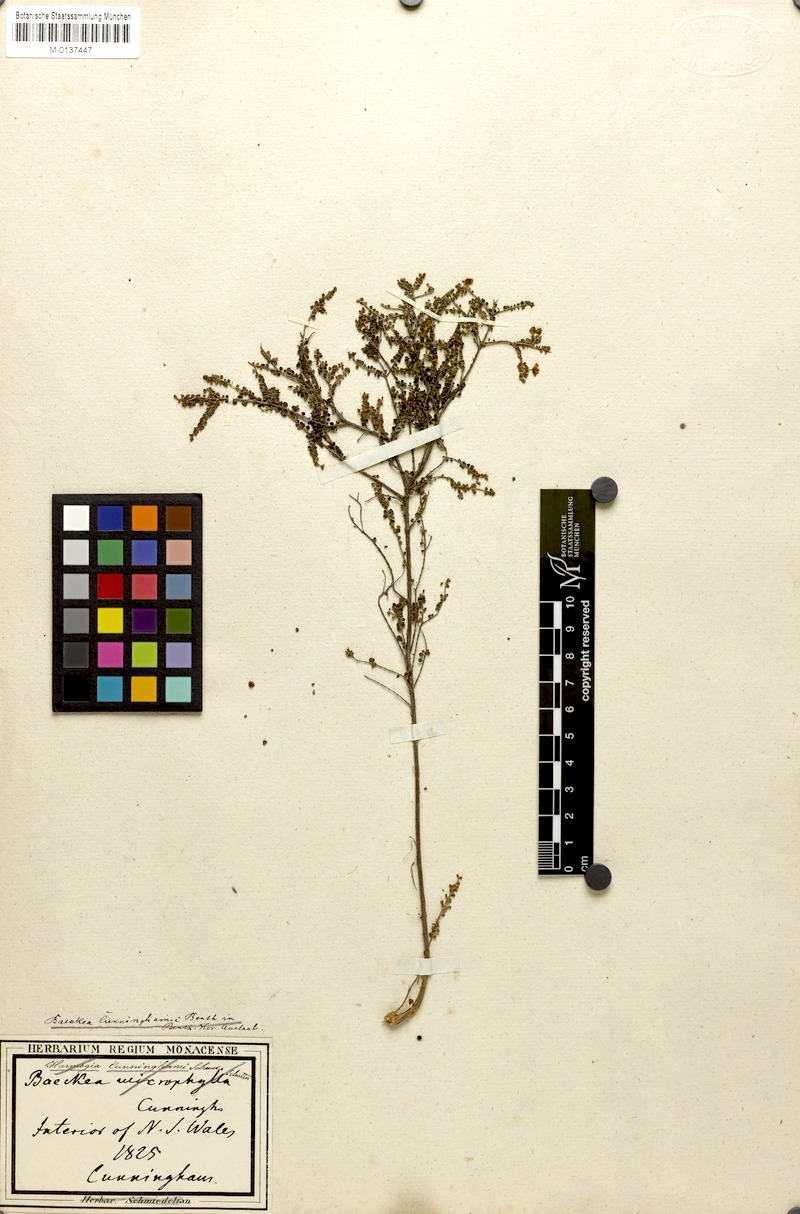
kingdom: Plantae
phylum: Tracheophyta
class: Magnoliopsida
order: Myrtales
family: Myrtaceae
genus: Sannantha
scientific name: Sannantha cunninghamii
